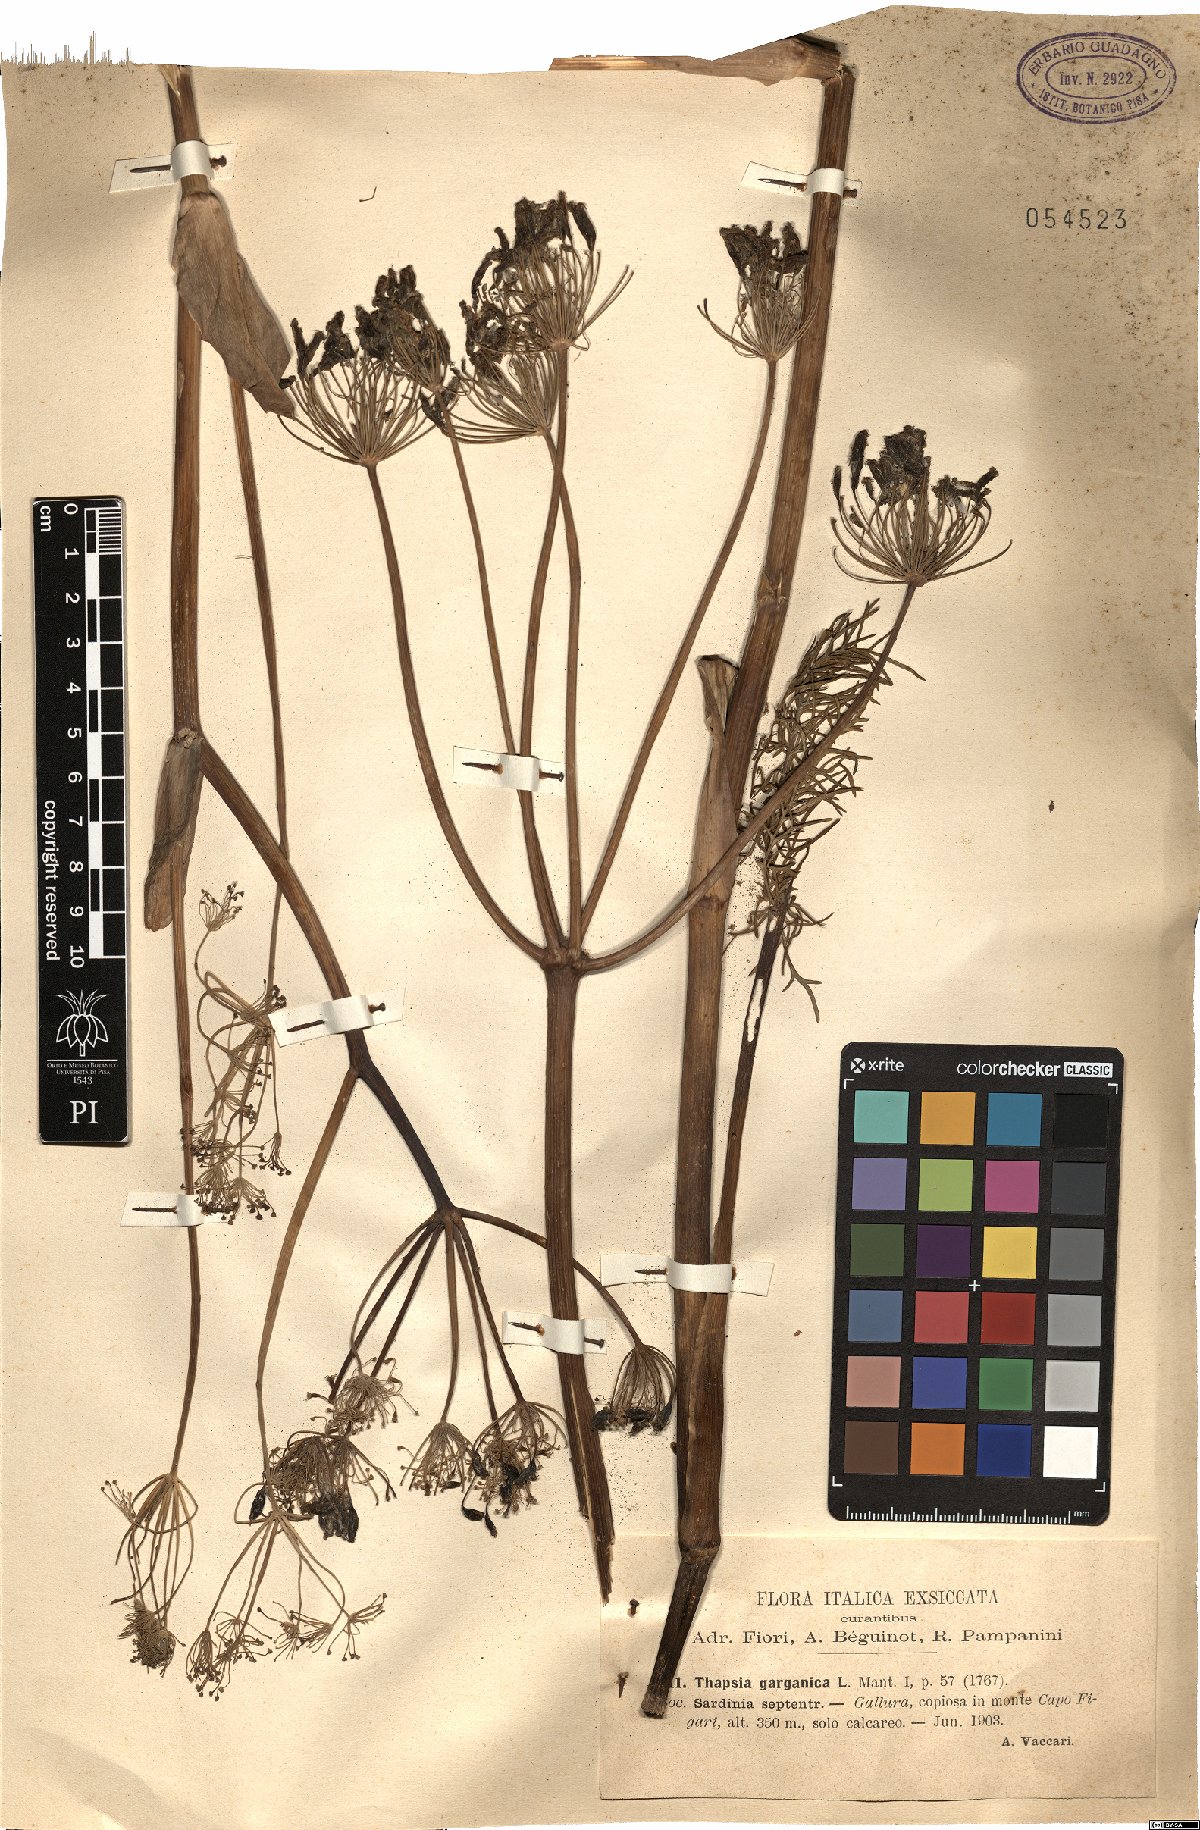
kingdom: Plantae
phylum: Tracheophyta
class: Magnoliopsida
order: Apiales
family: Apiaceae
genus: Thapsia
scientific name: Thapsia garganica
